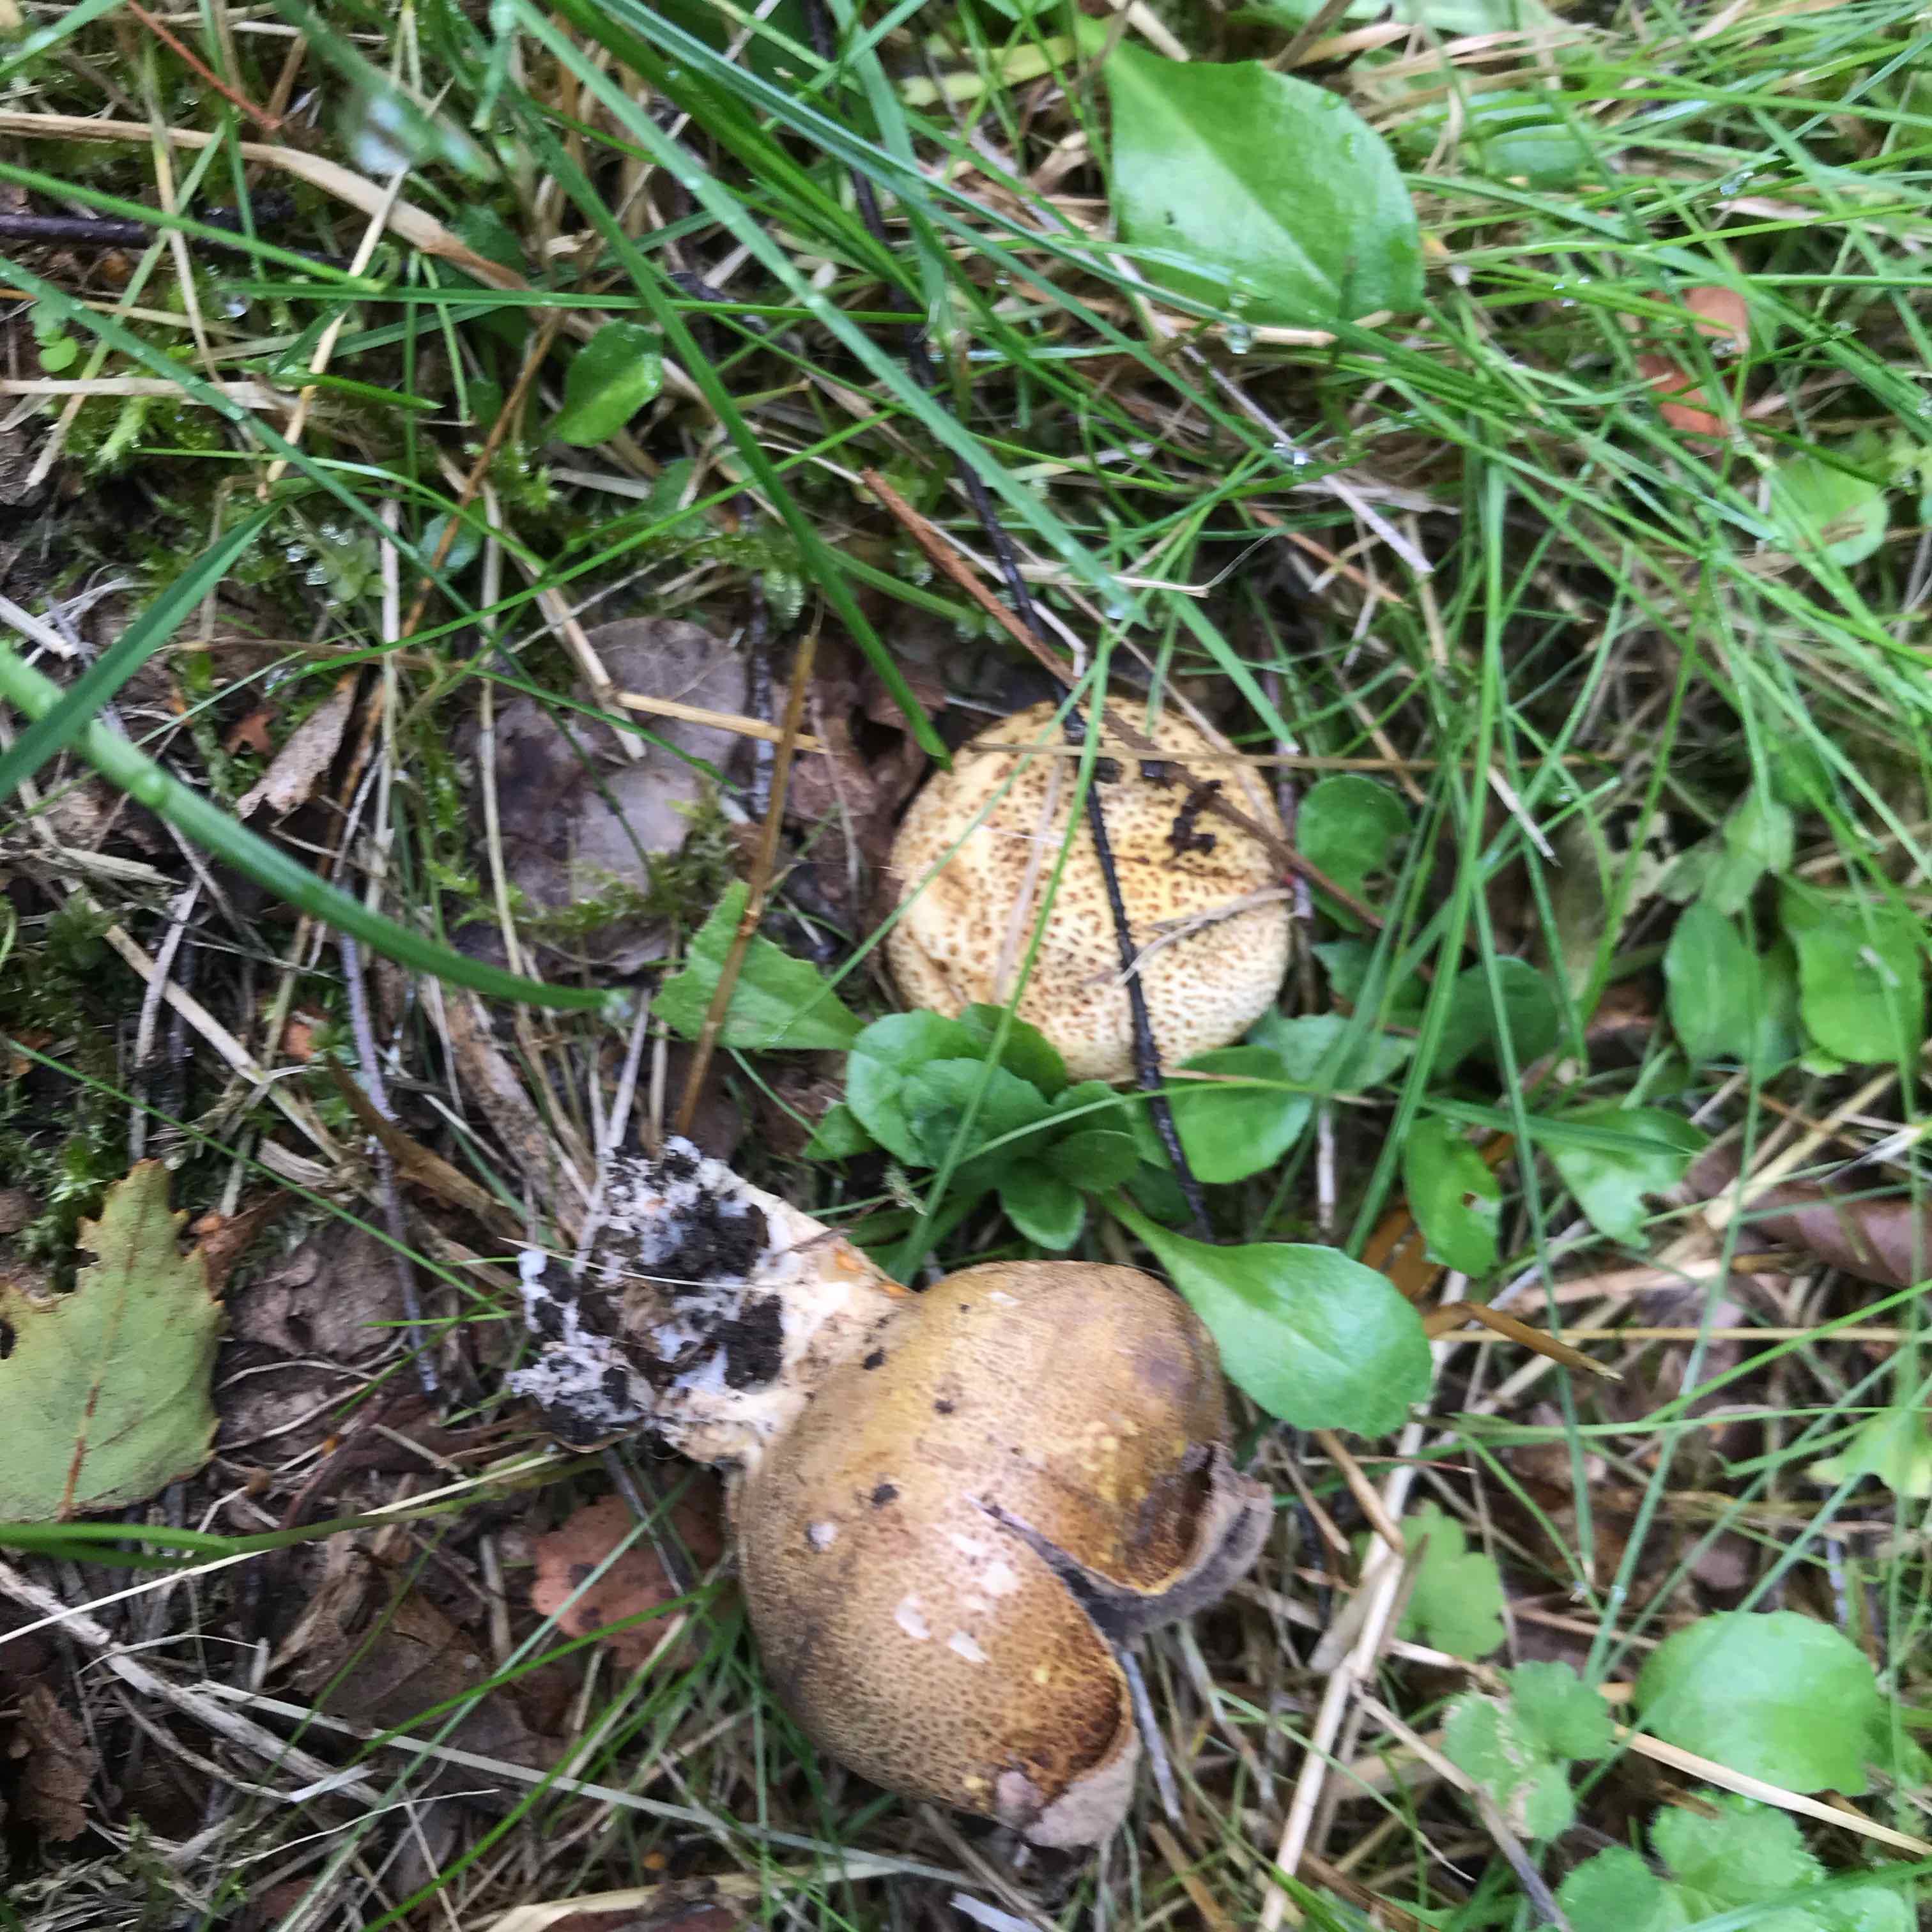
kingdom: Fungi
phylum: Basidiomycota
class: Agaricomycetes
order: Boletales
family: Sclerodermataceae
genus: Scleroderma
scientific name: Scleroderma verrucosum
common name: stilket bruskbold
